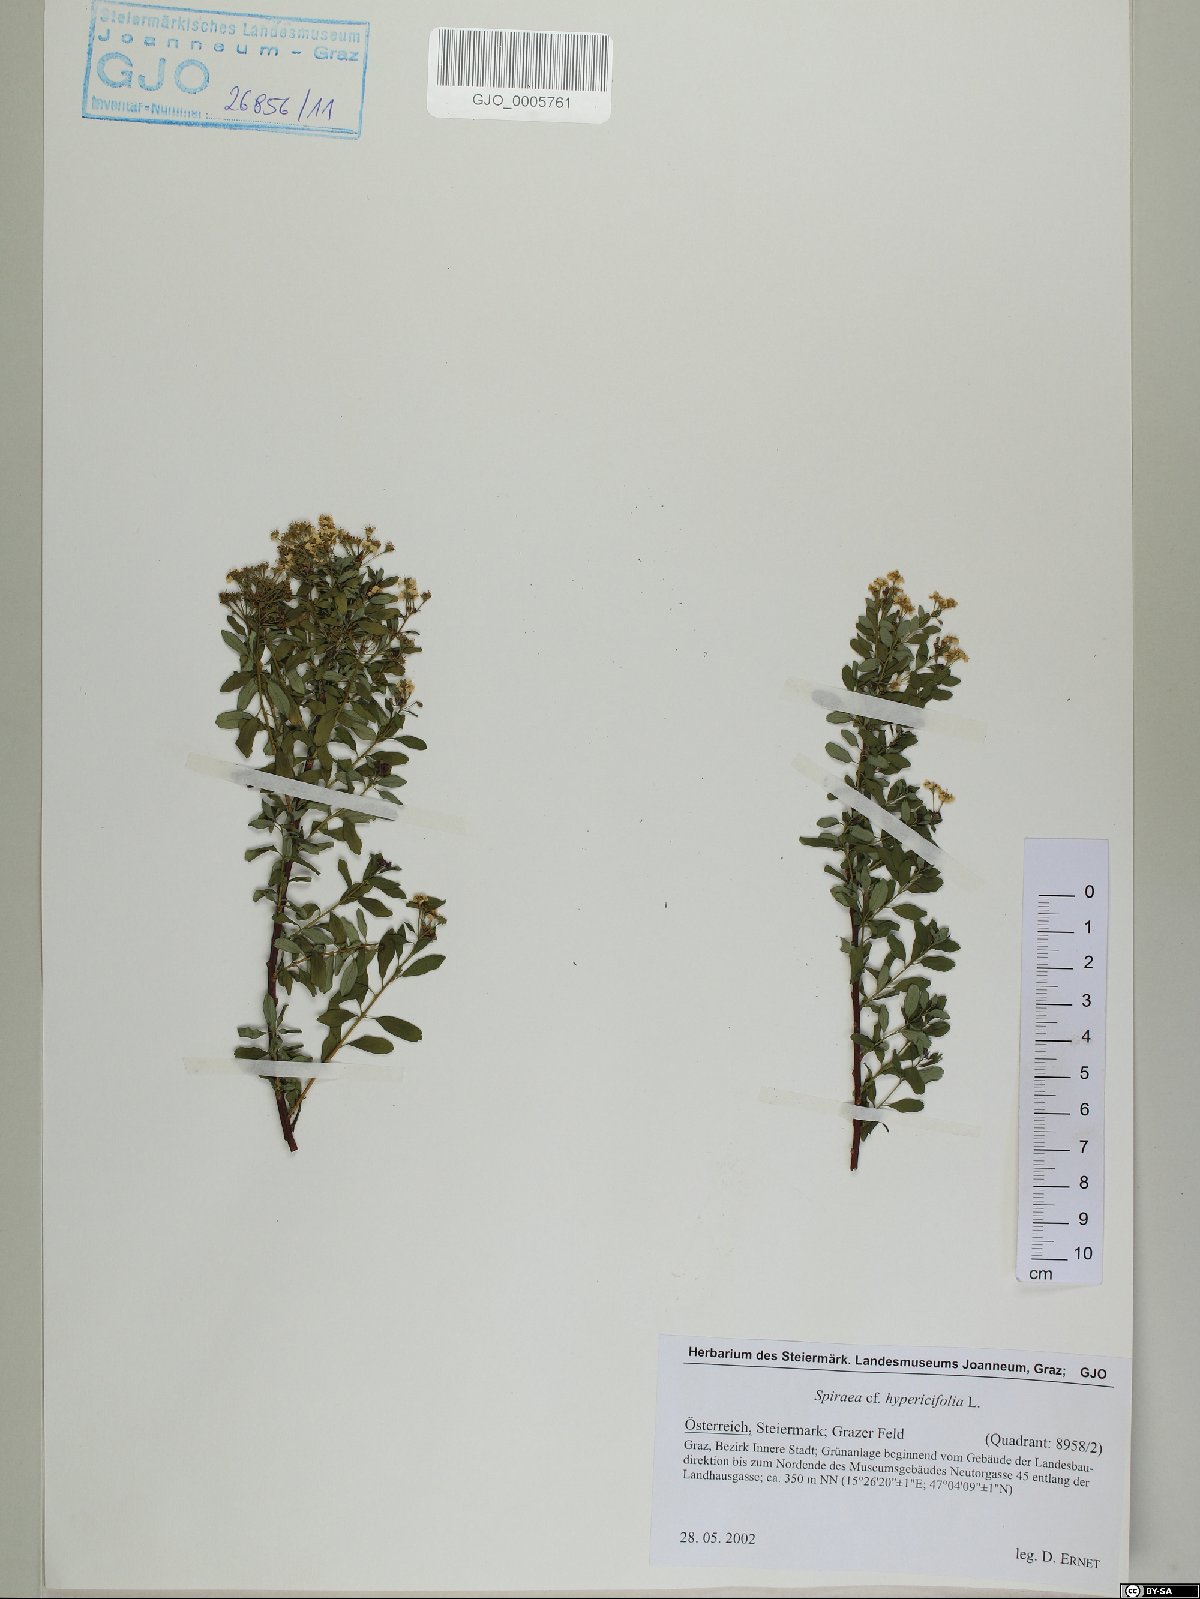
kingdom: Plantae
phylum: Tracheophyta
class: Magnoliopsida
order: Rosales
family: Rosaceae
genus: Spiraea
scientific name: Spiraea hypericifolia
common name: Iberian spirea
